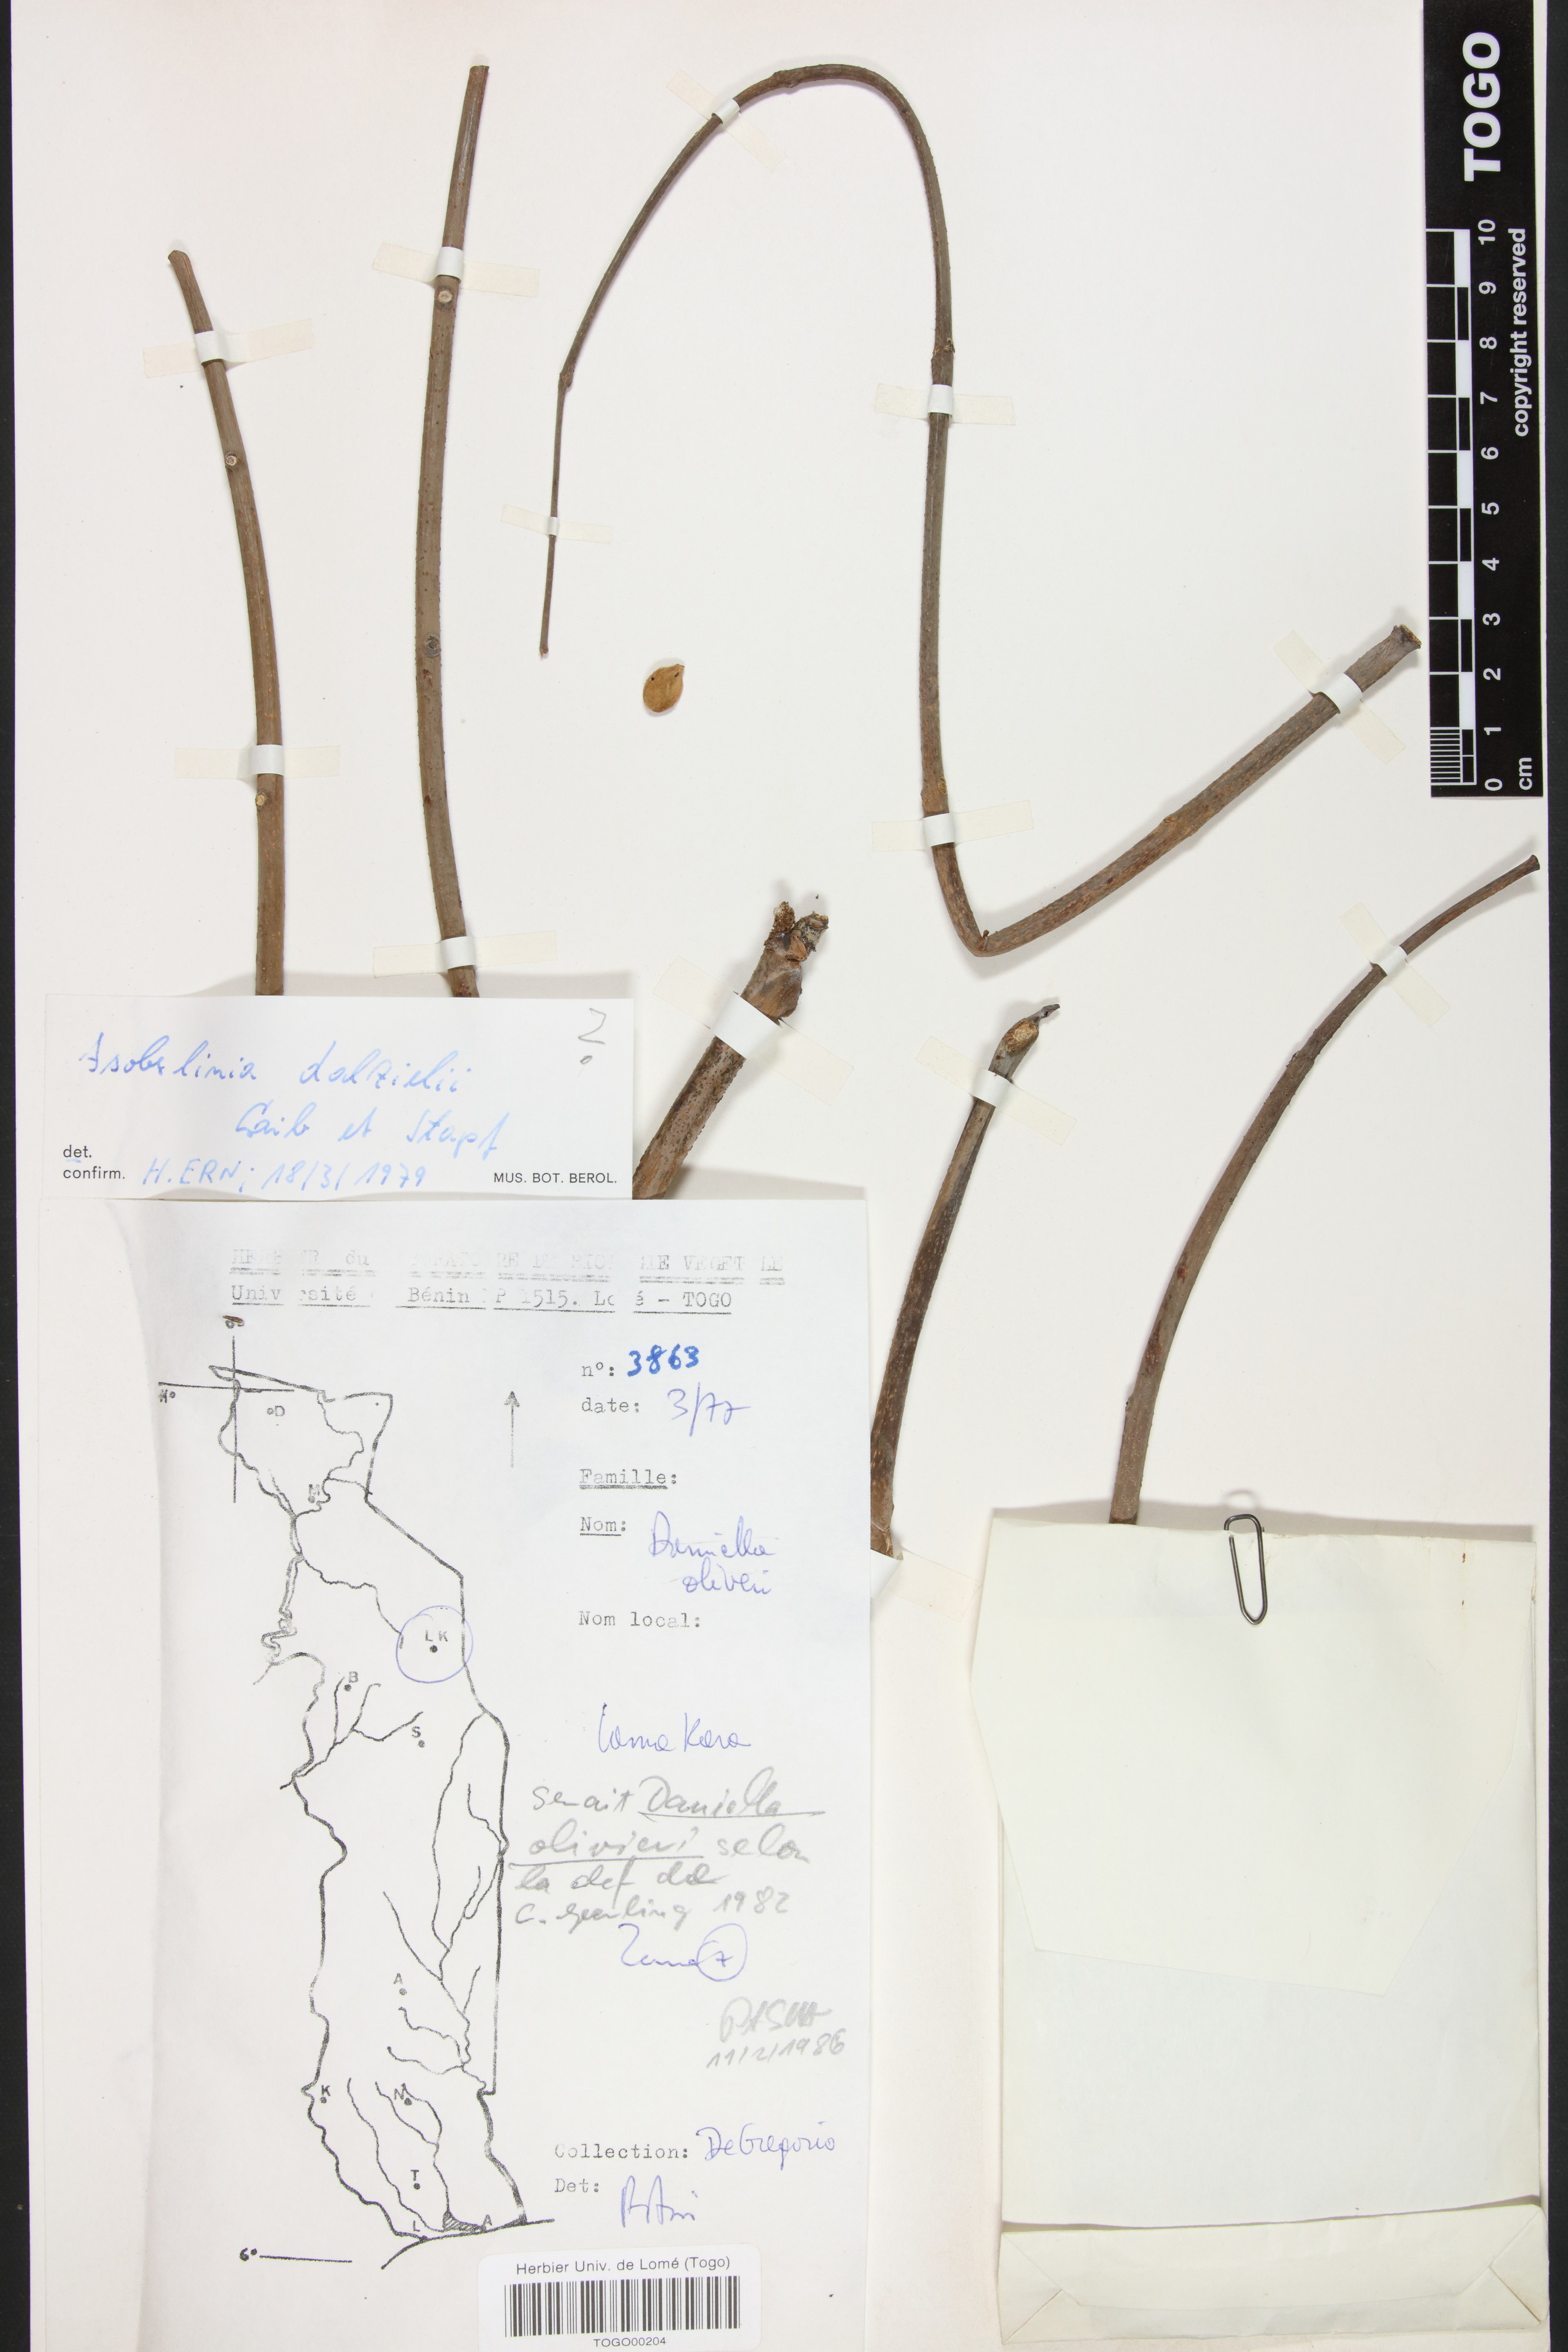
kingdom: Plantae
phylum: Tracheophyta
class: Magnoliopsida
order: Fabales
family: Fabaceae
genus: Daniellia
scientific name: Daniellia oliveri
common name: African copaiba balsamtree
